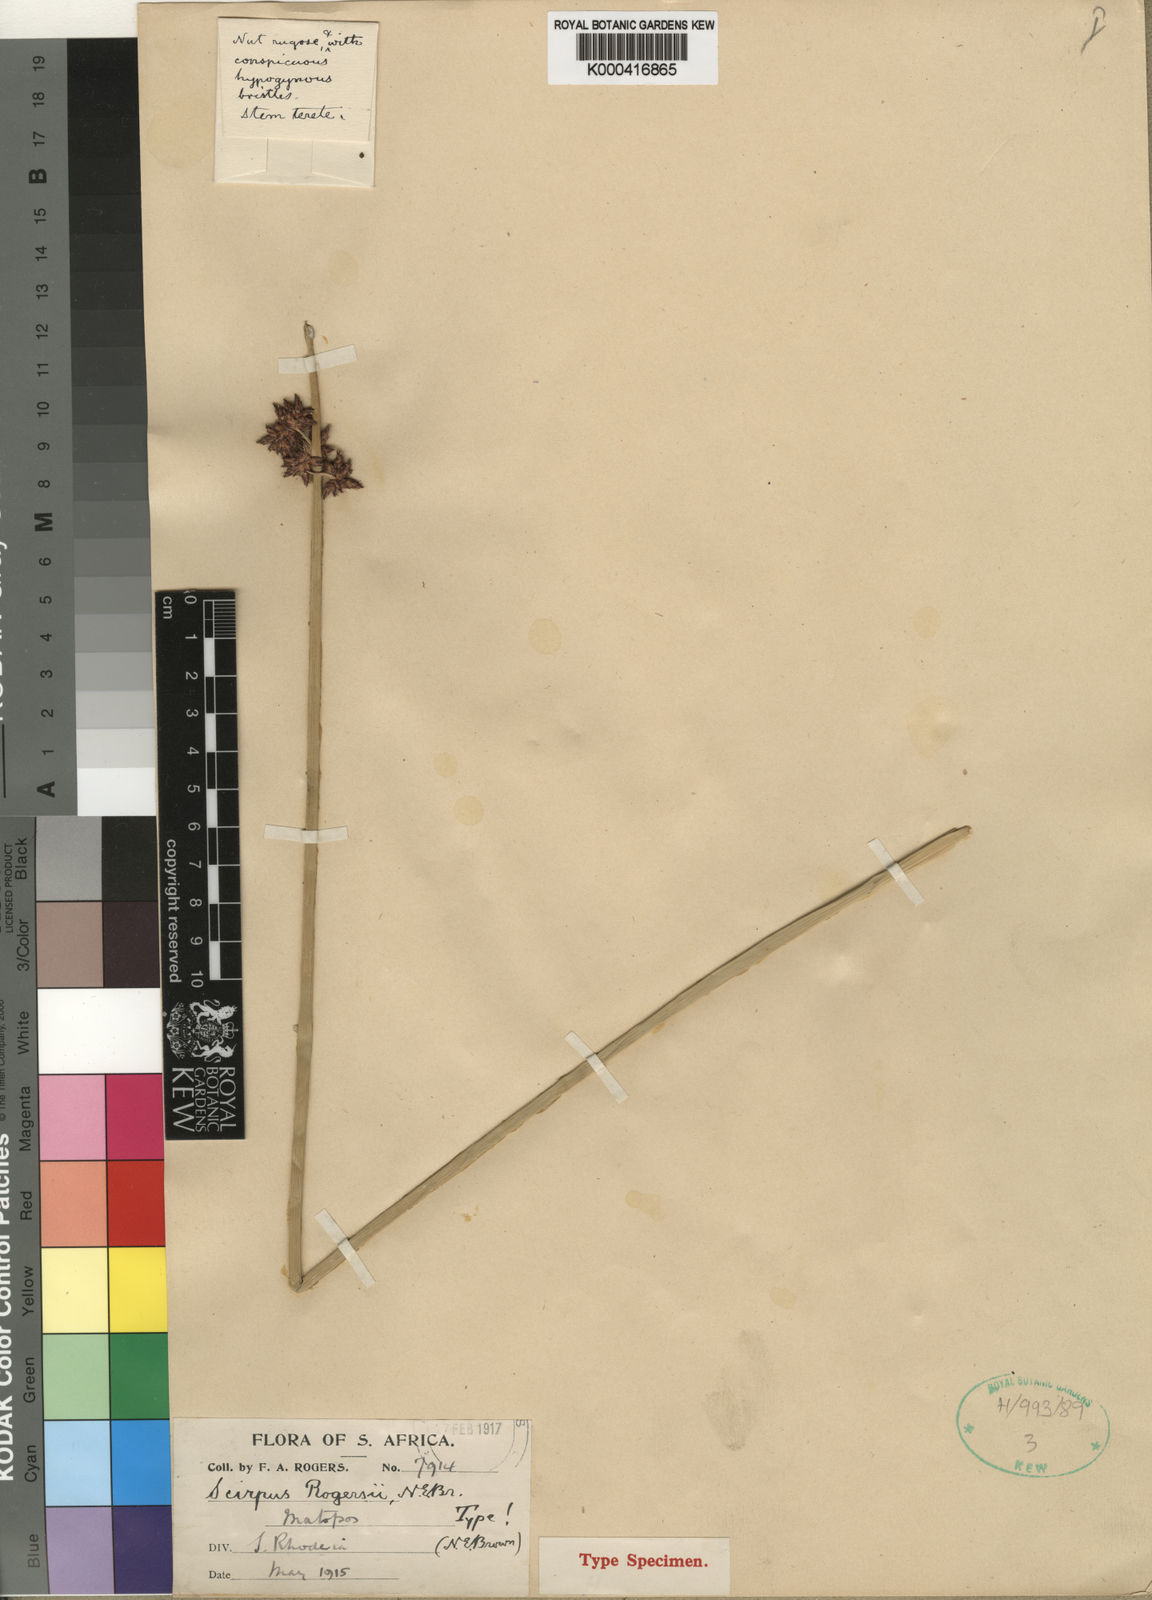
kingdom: Plantae
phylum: Tracheophyta
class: Liliopsida
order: Poales
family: Cyperaceae
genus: Schoenoplectiella
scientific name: Schoenoplectiella rogersii
